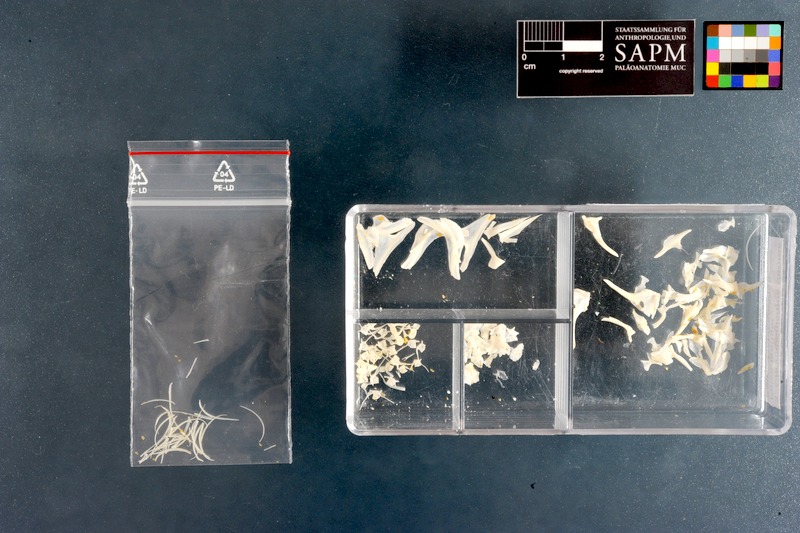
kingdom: Animalia
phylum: Chordata
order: Gobiesociformes
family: Gobiesocidae
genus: Chorisochismus
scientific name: Chorisochismus dentex
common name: Rocksucker
